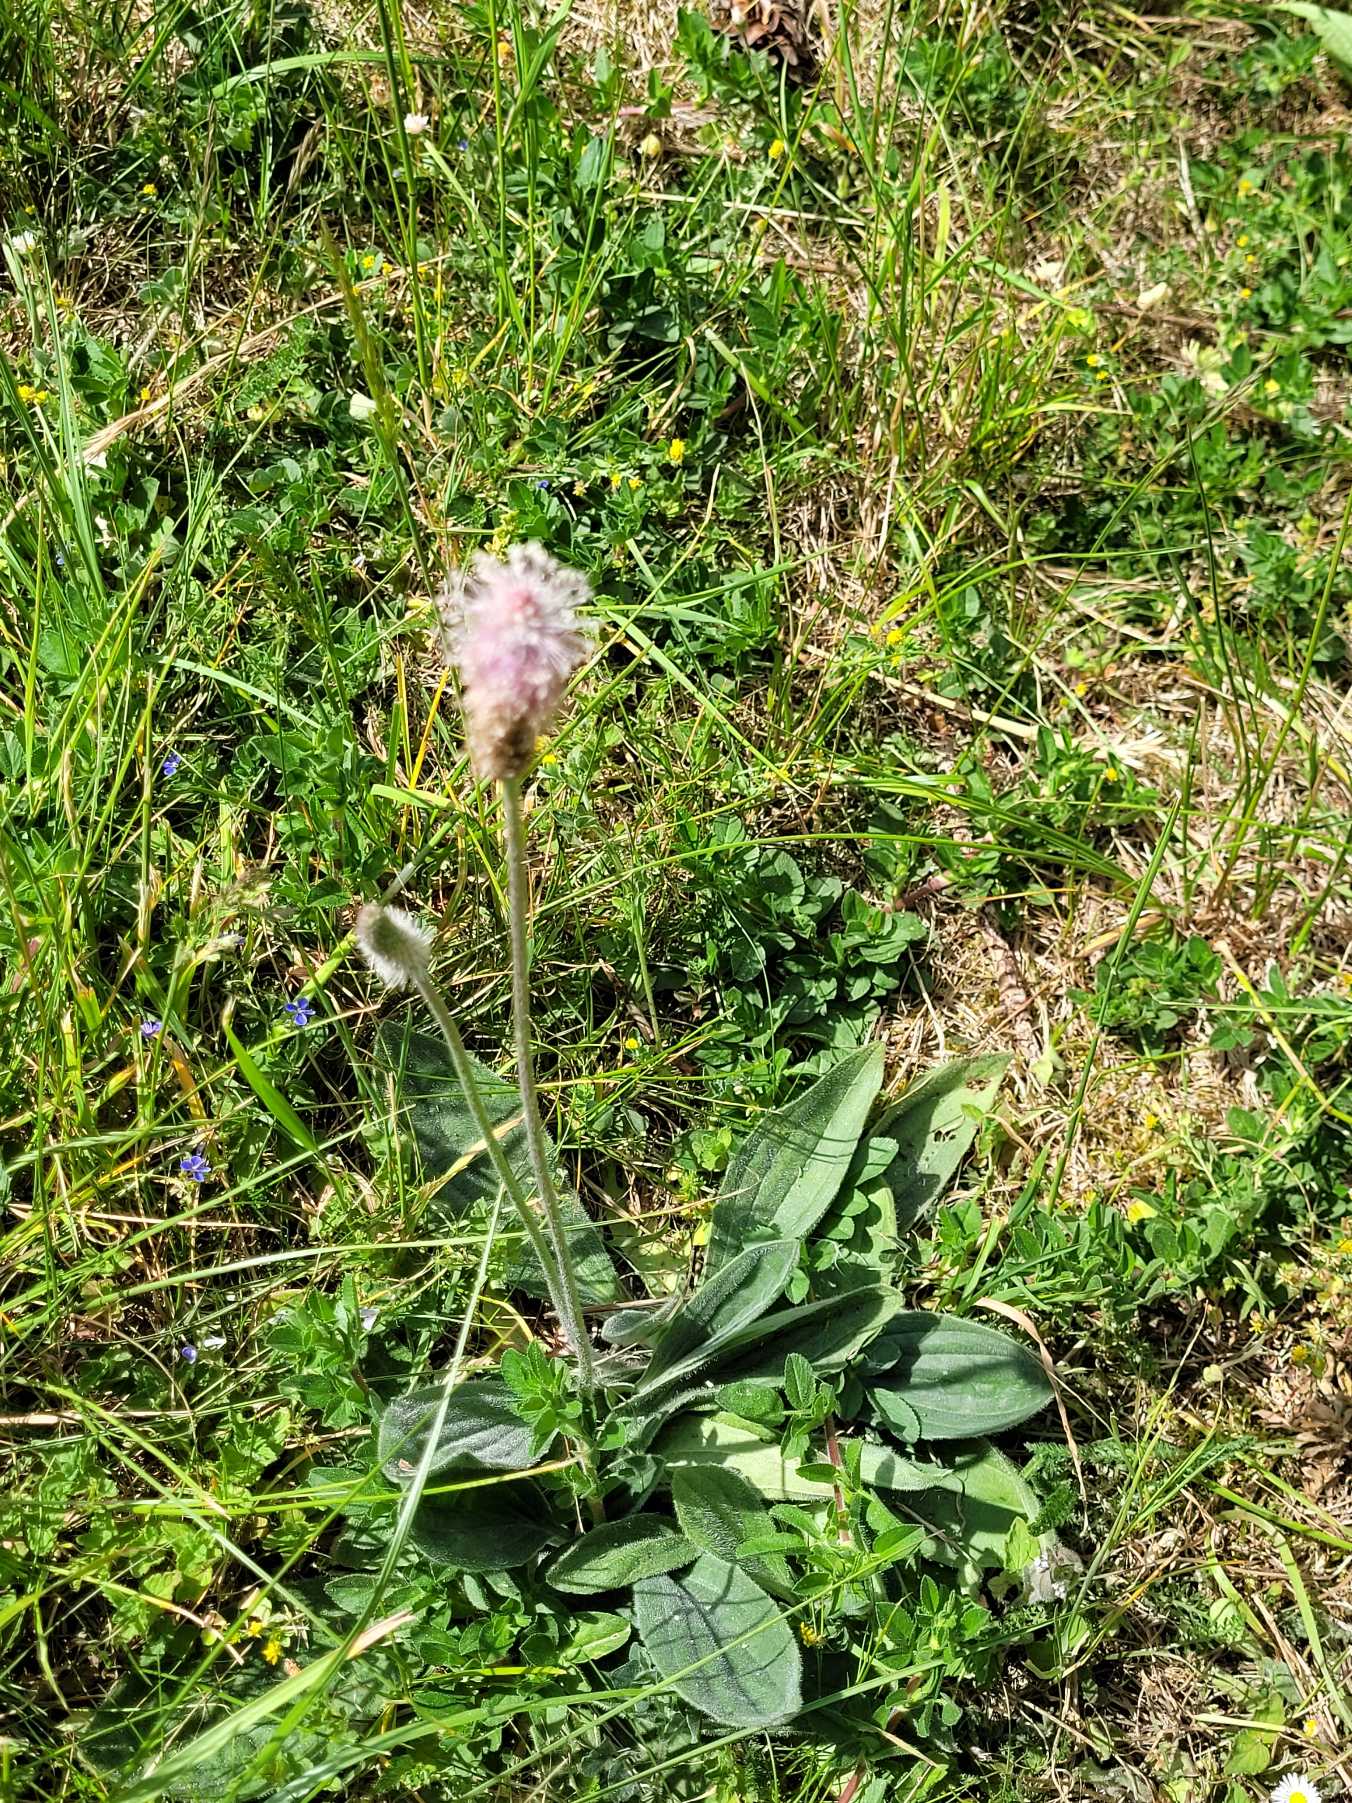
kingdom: Plantae
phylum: Tracheophyta
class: Magnoliopsida
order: Lamiales
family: Plantaginaceae
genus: Plantago
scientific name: Plantago media
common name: Dunet vejbred
